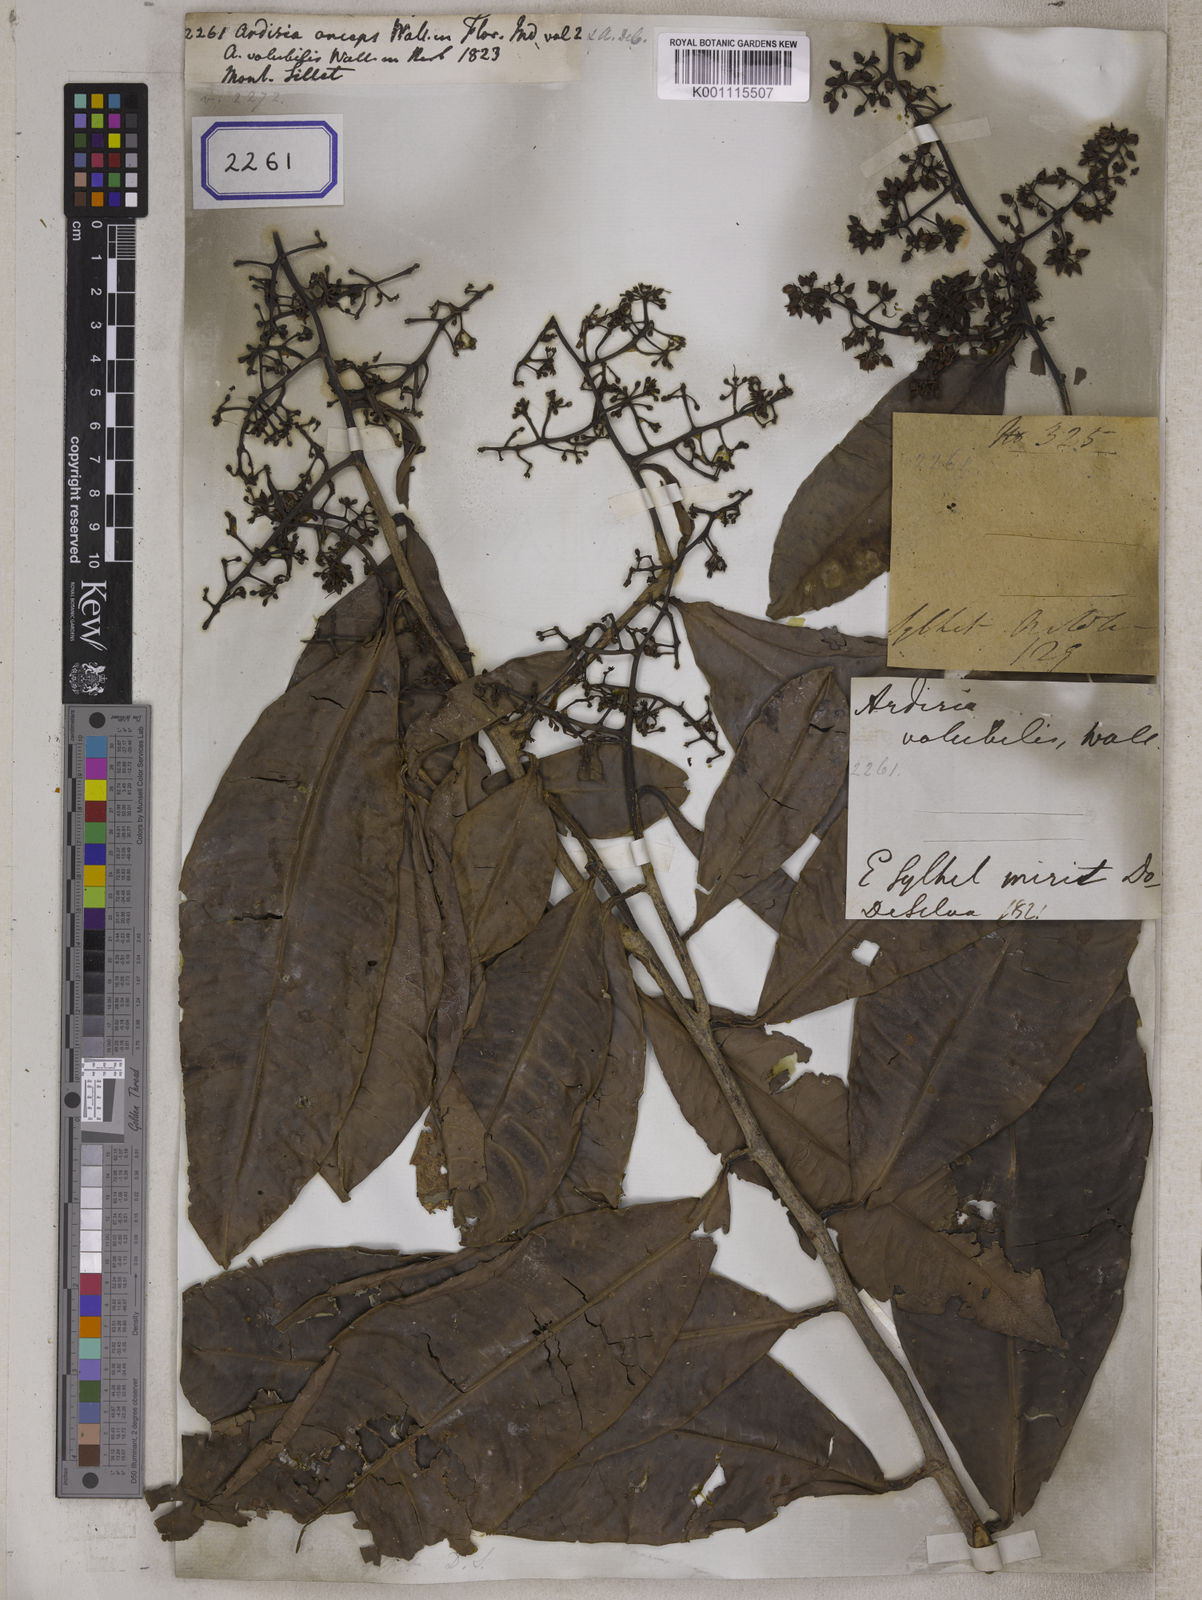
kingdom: Plantae
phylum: Tracheophyta
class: Magnoliopsida
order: Ericales
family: Primulaceae
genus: Ardisia
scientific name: Ardisia complanata
